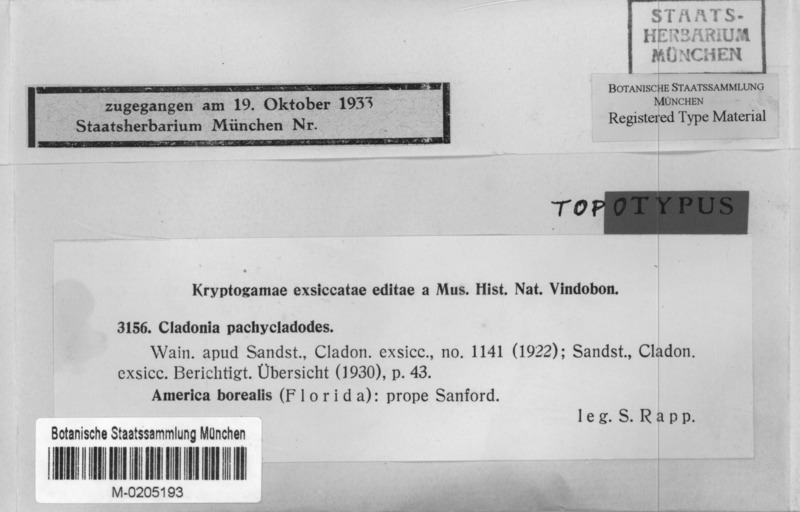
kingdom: Fungi
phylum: Ascomycota
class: Lecanoromycetes
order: Lecanorales
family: Cladoniaceae
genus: Cladonia
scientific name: Cladonia pachycladodes
